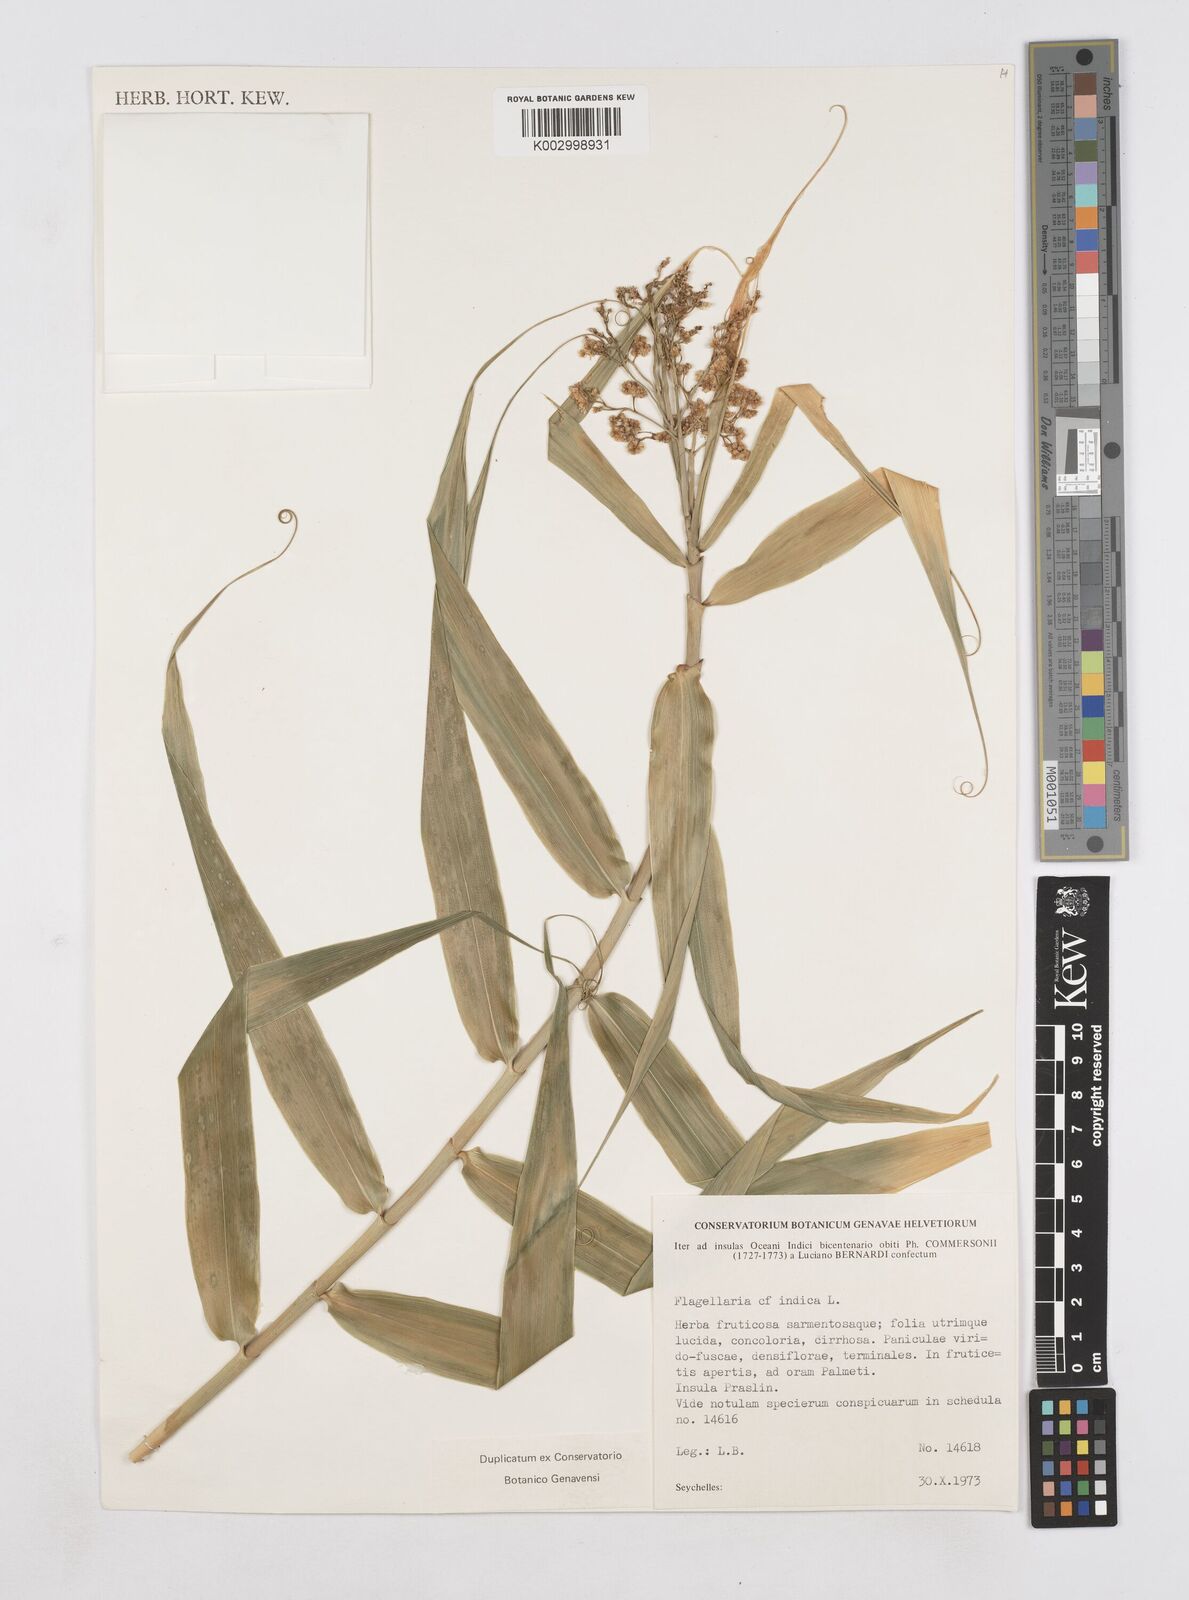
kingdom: Plantae
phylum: Tracheophyta
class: Liliopsida
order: Poales
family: Flagellariaceae
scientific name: Flagellariaceae
